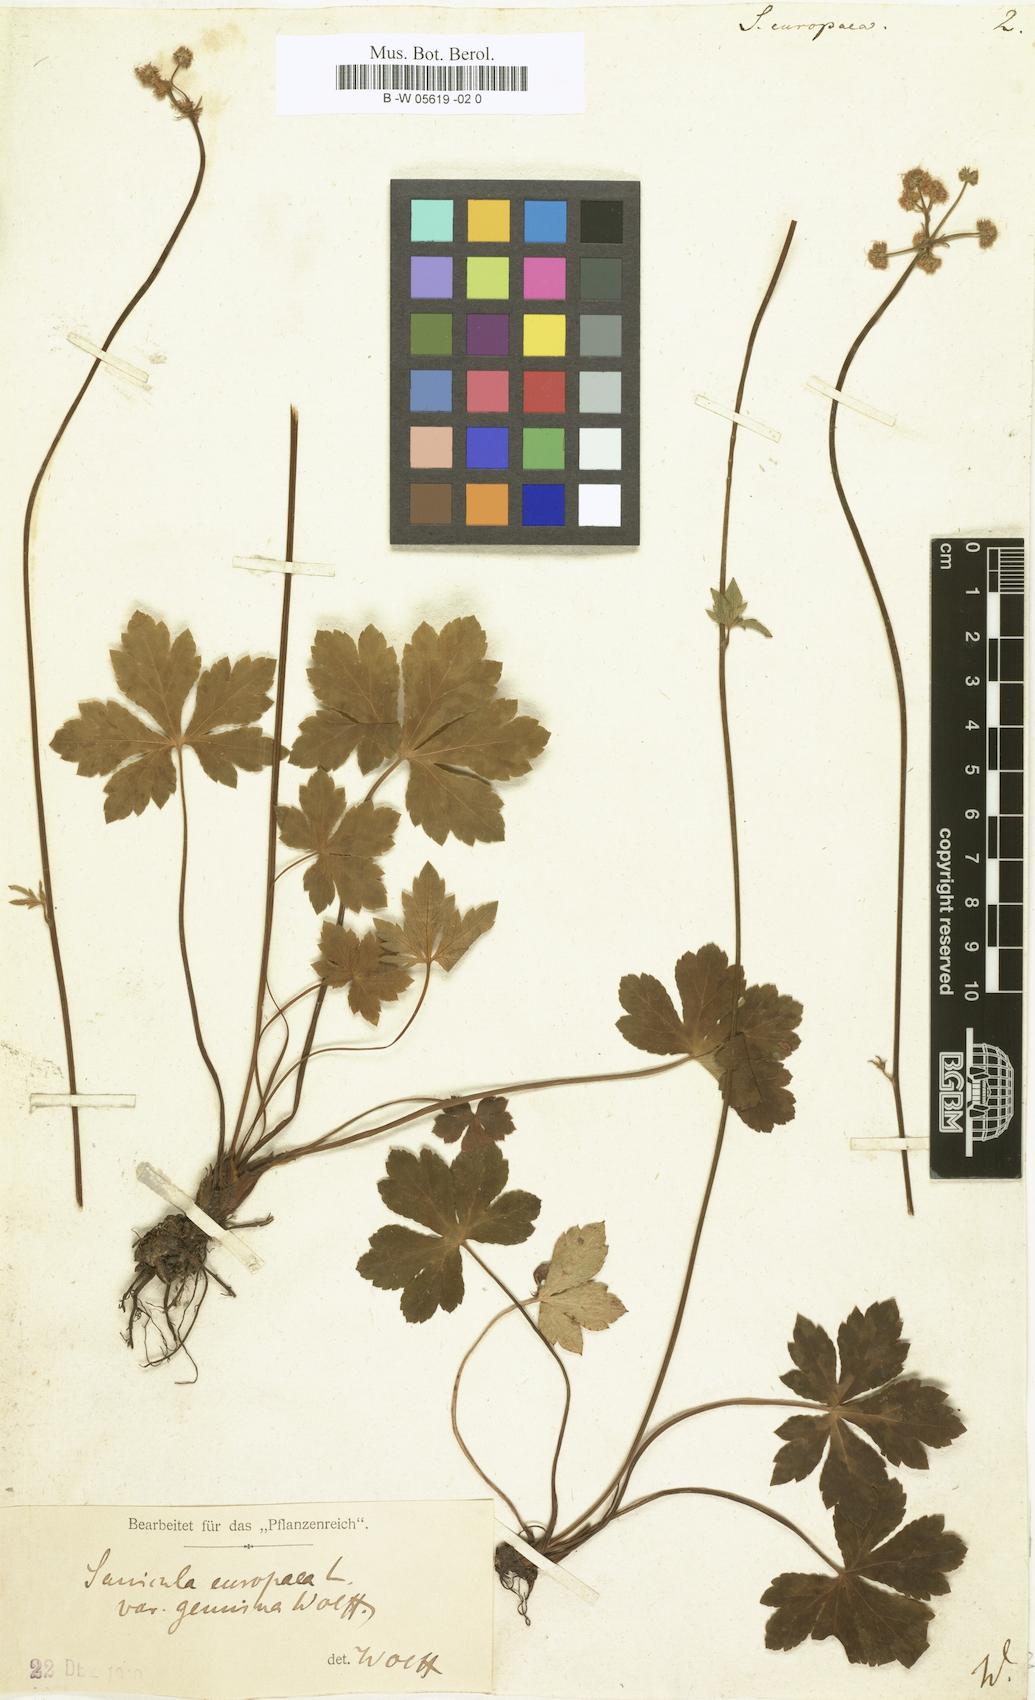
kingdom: Plantae
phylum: Tracheophyta
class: Magnoliopsida
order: Apiales
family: Apiaceae
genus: Sanicula
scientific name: Sanicula europaea
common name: Sanicle
